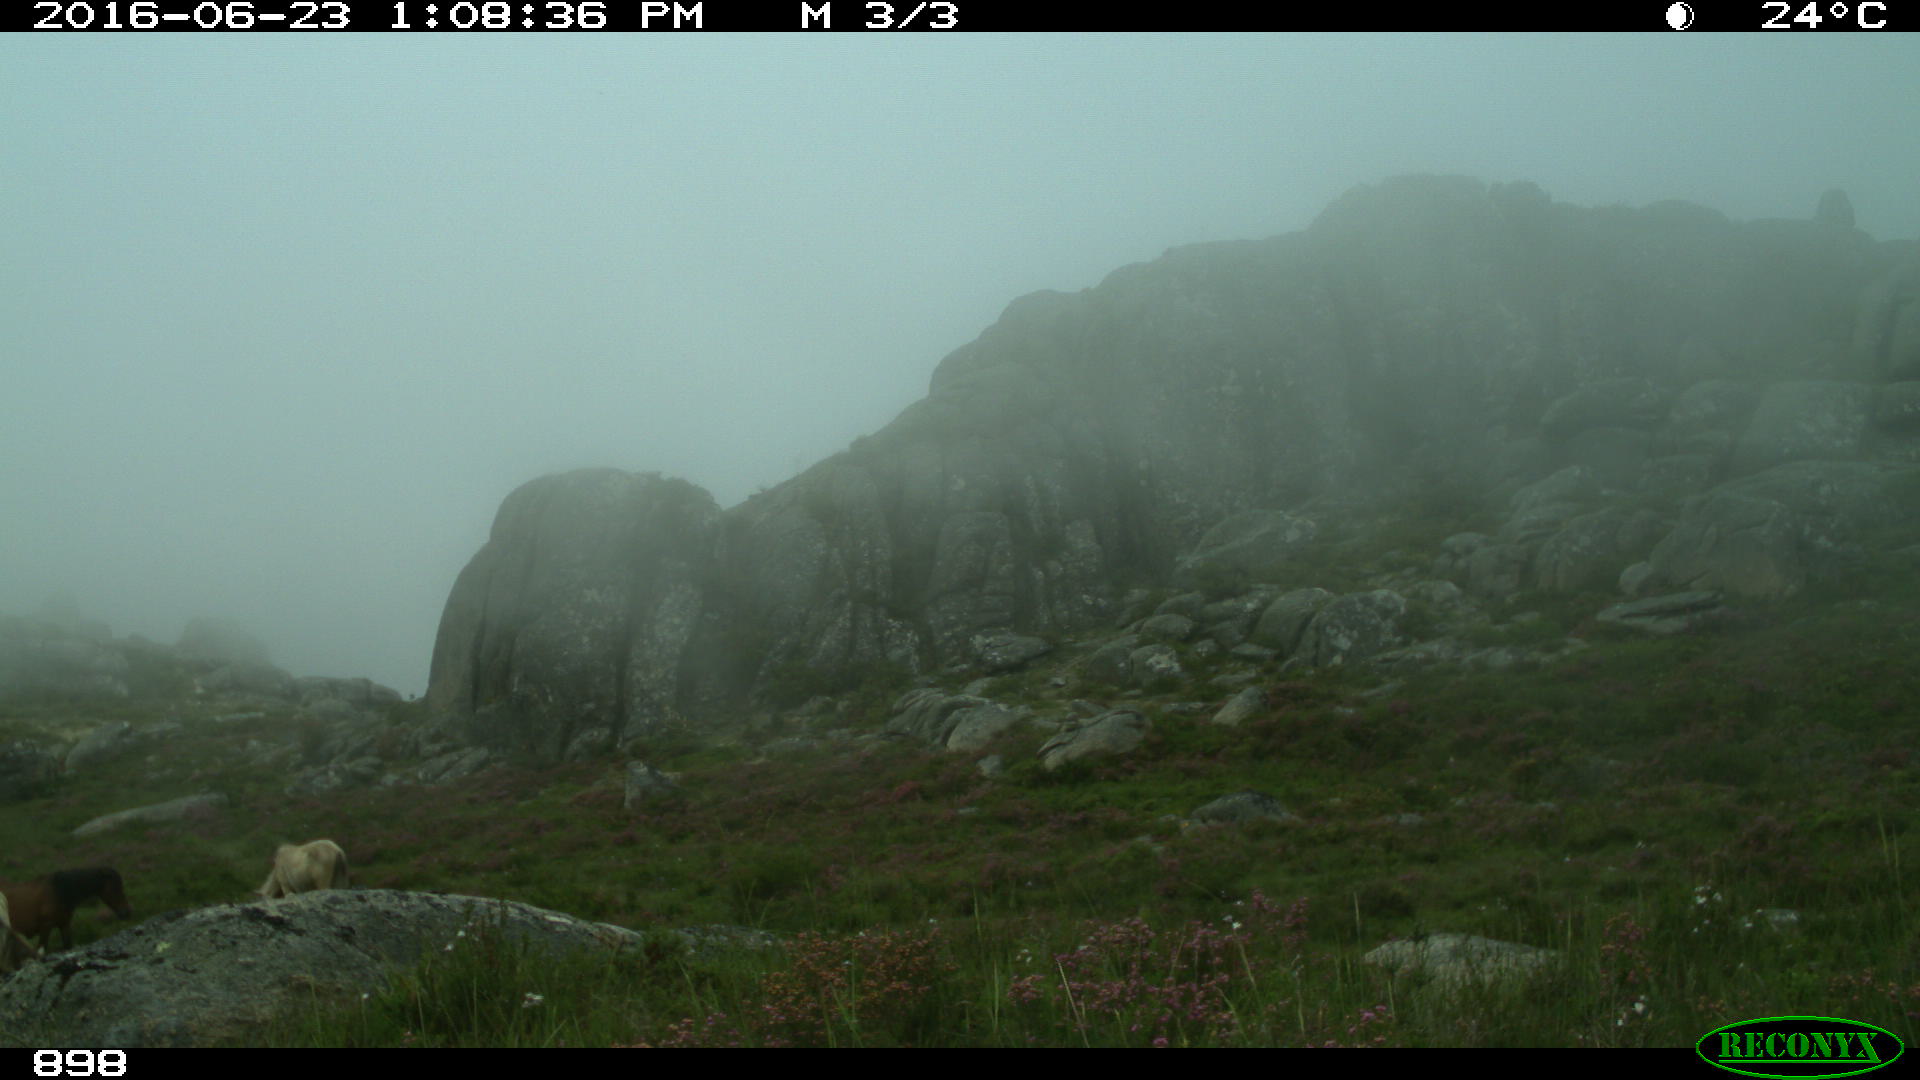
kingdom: Animalia
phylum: Chordata
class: Mammalia
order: Perissodactyla
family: Equidae
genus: Equus
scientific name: Equus caballus
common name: Horse
